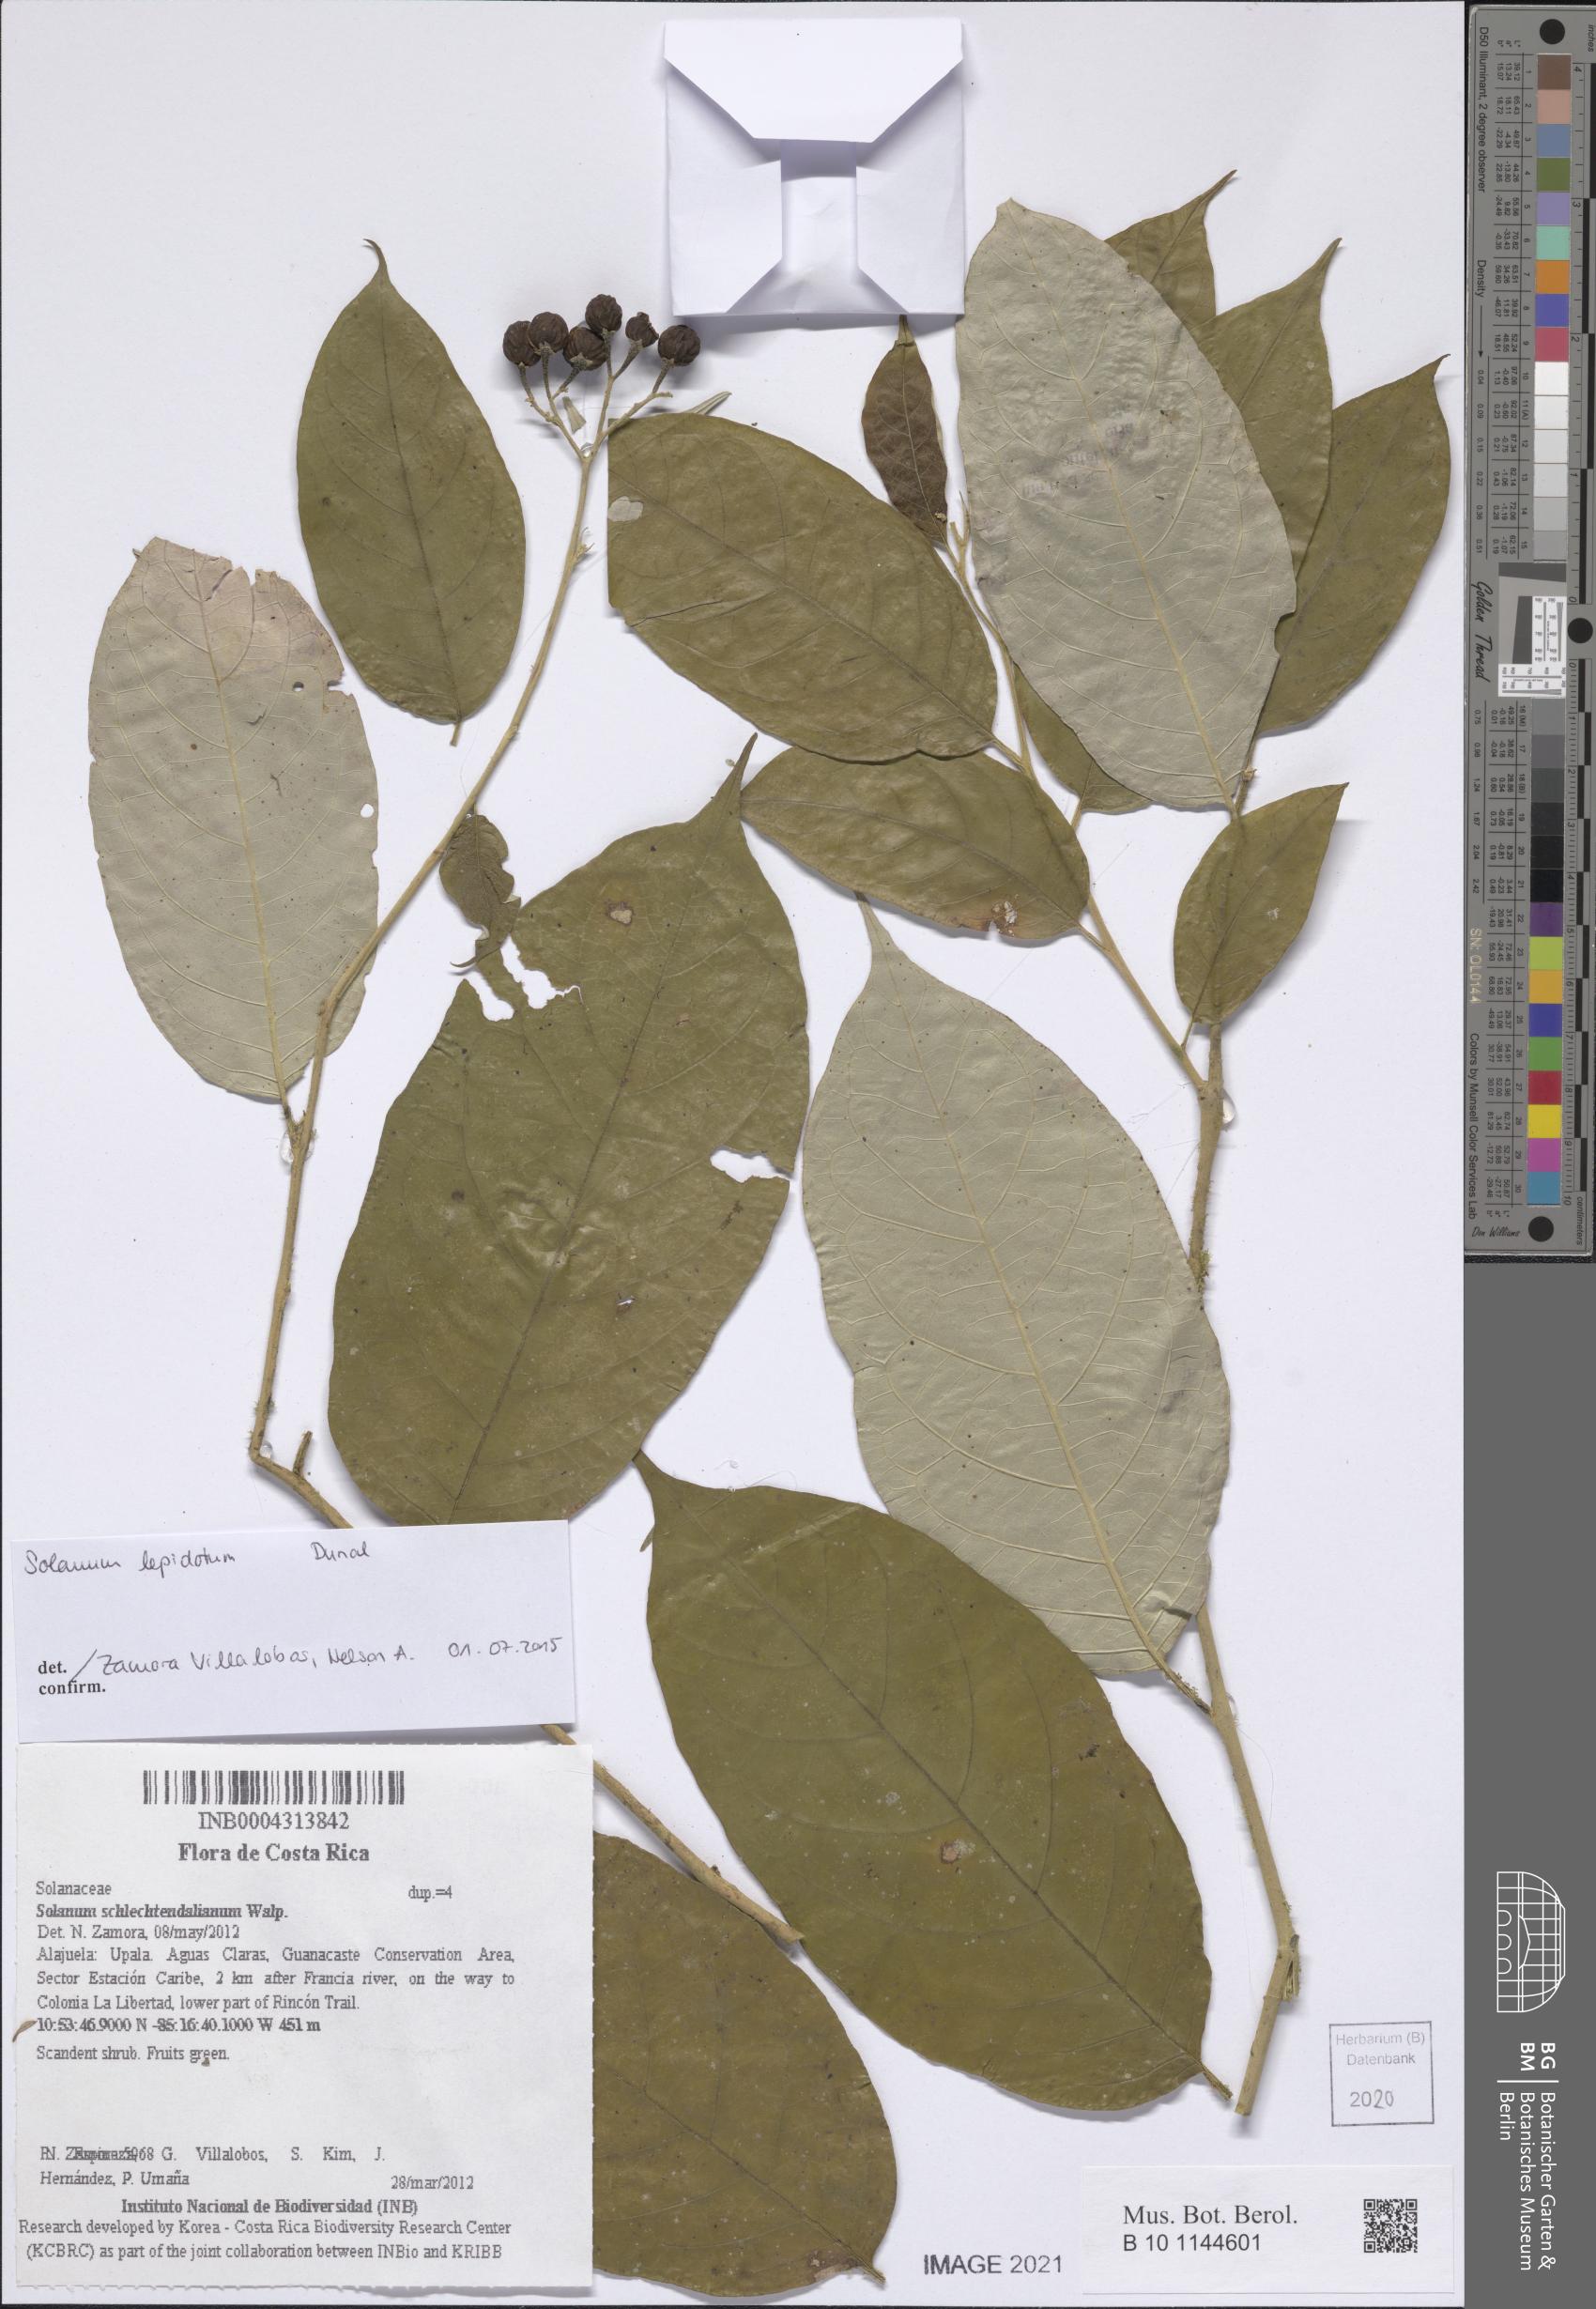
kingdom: Plantae
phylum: Tracheophyta
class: Magnoliopsida
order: Solanales
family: Solanaceae
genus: Solanum
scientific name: Solanum lepidotum
